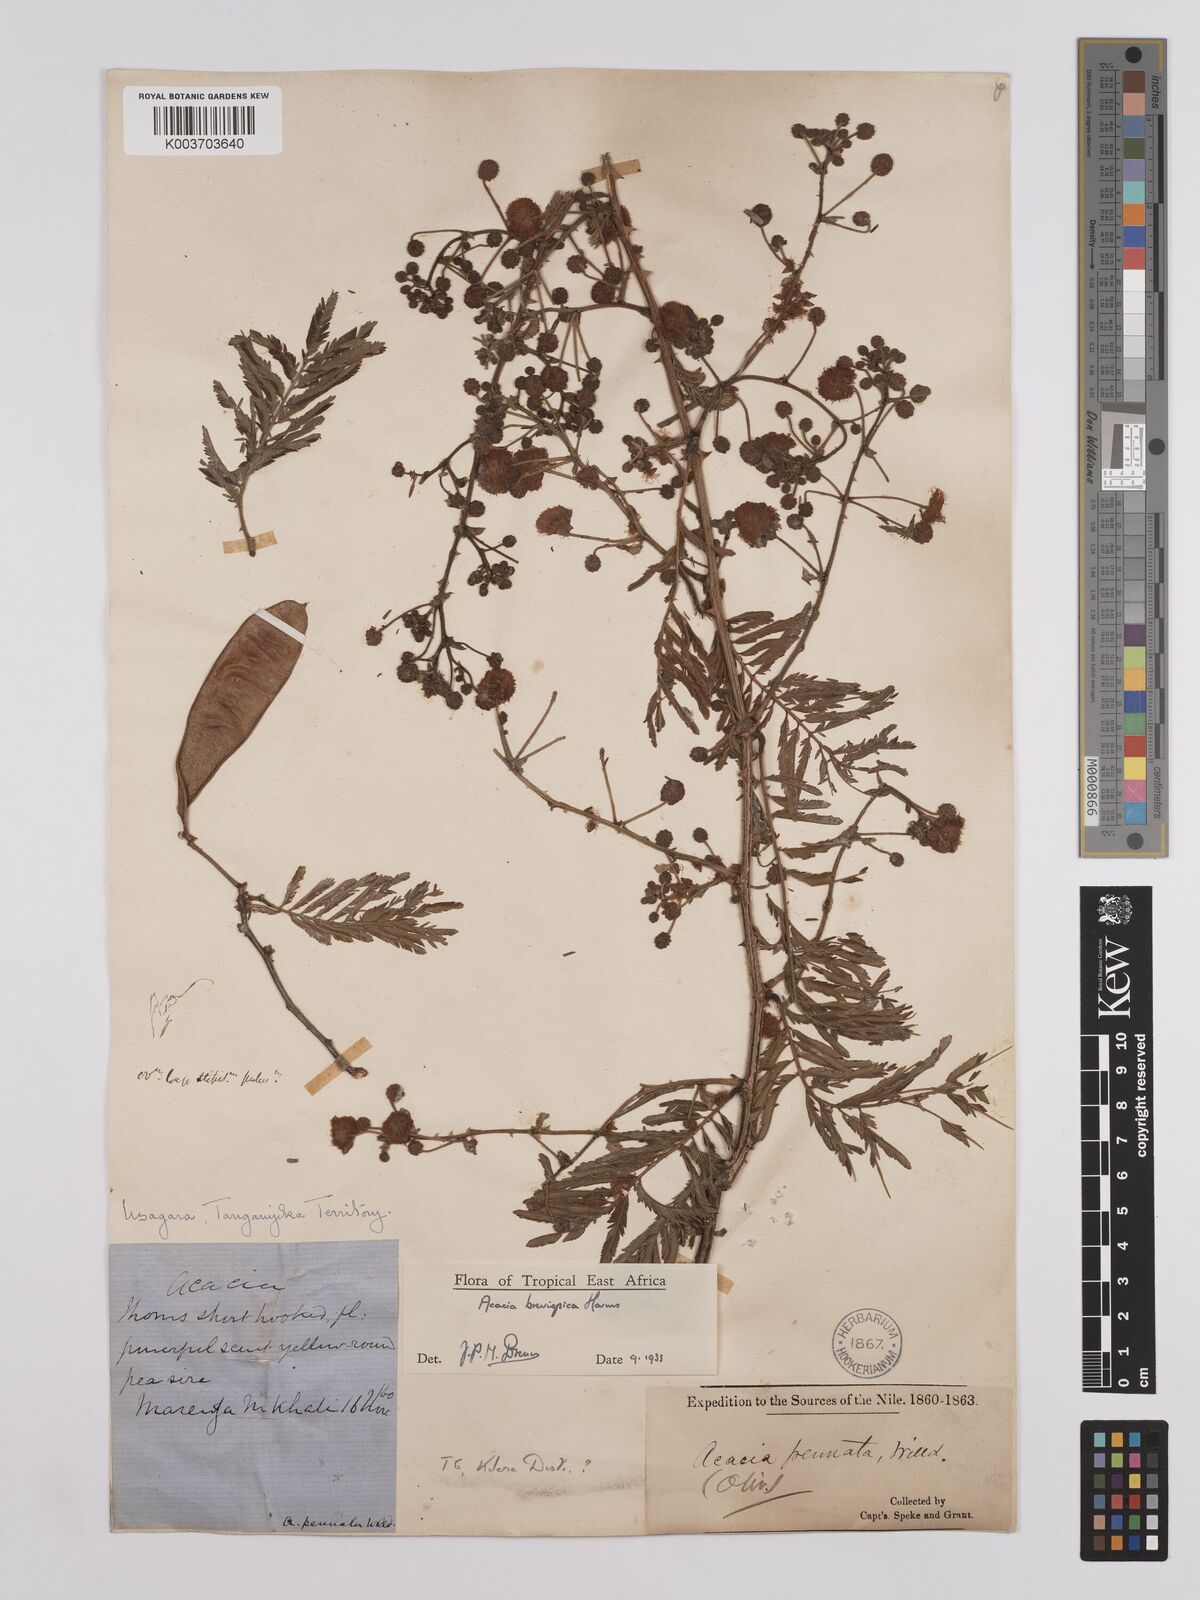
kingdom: Plantae
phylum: Tracheophyta
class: Magnoliopsida
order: Fabales
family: Fabaceae
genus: Senegalia
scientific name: Senegalia brevispica
